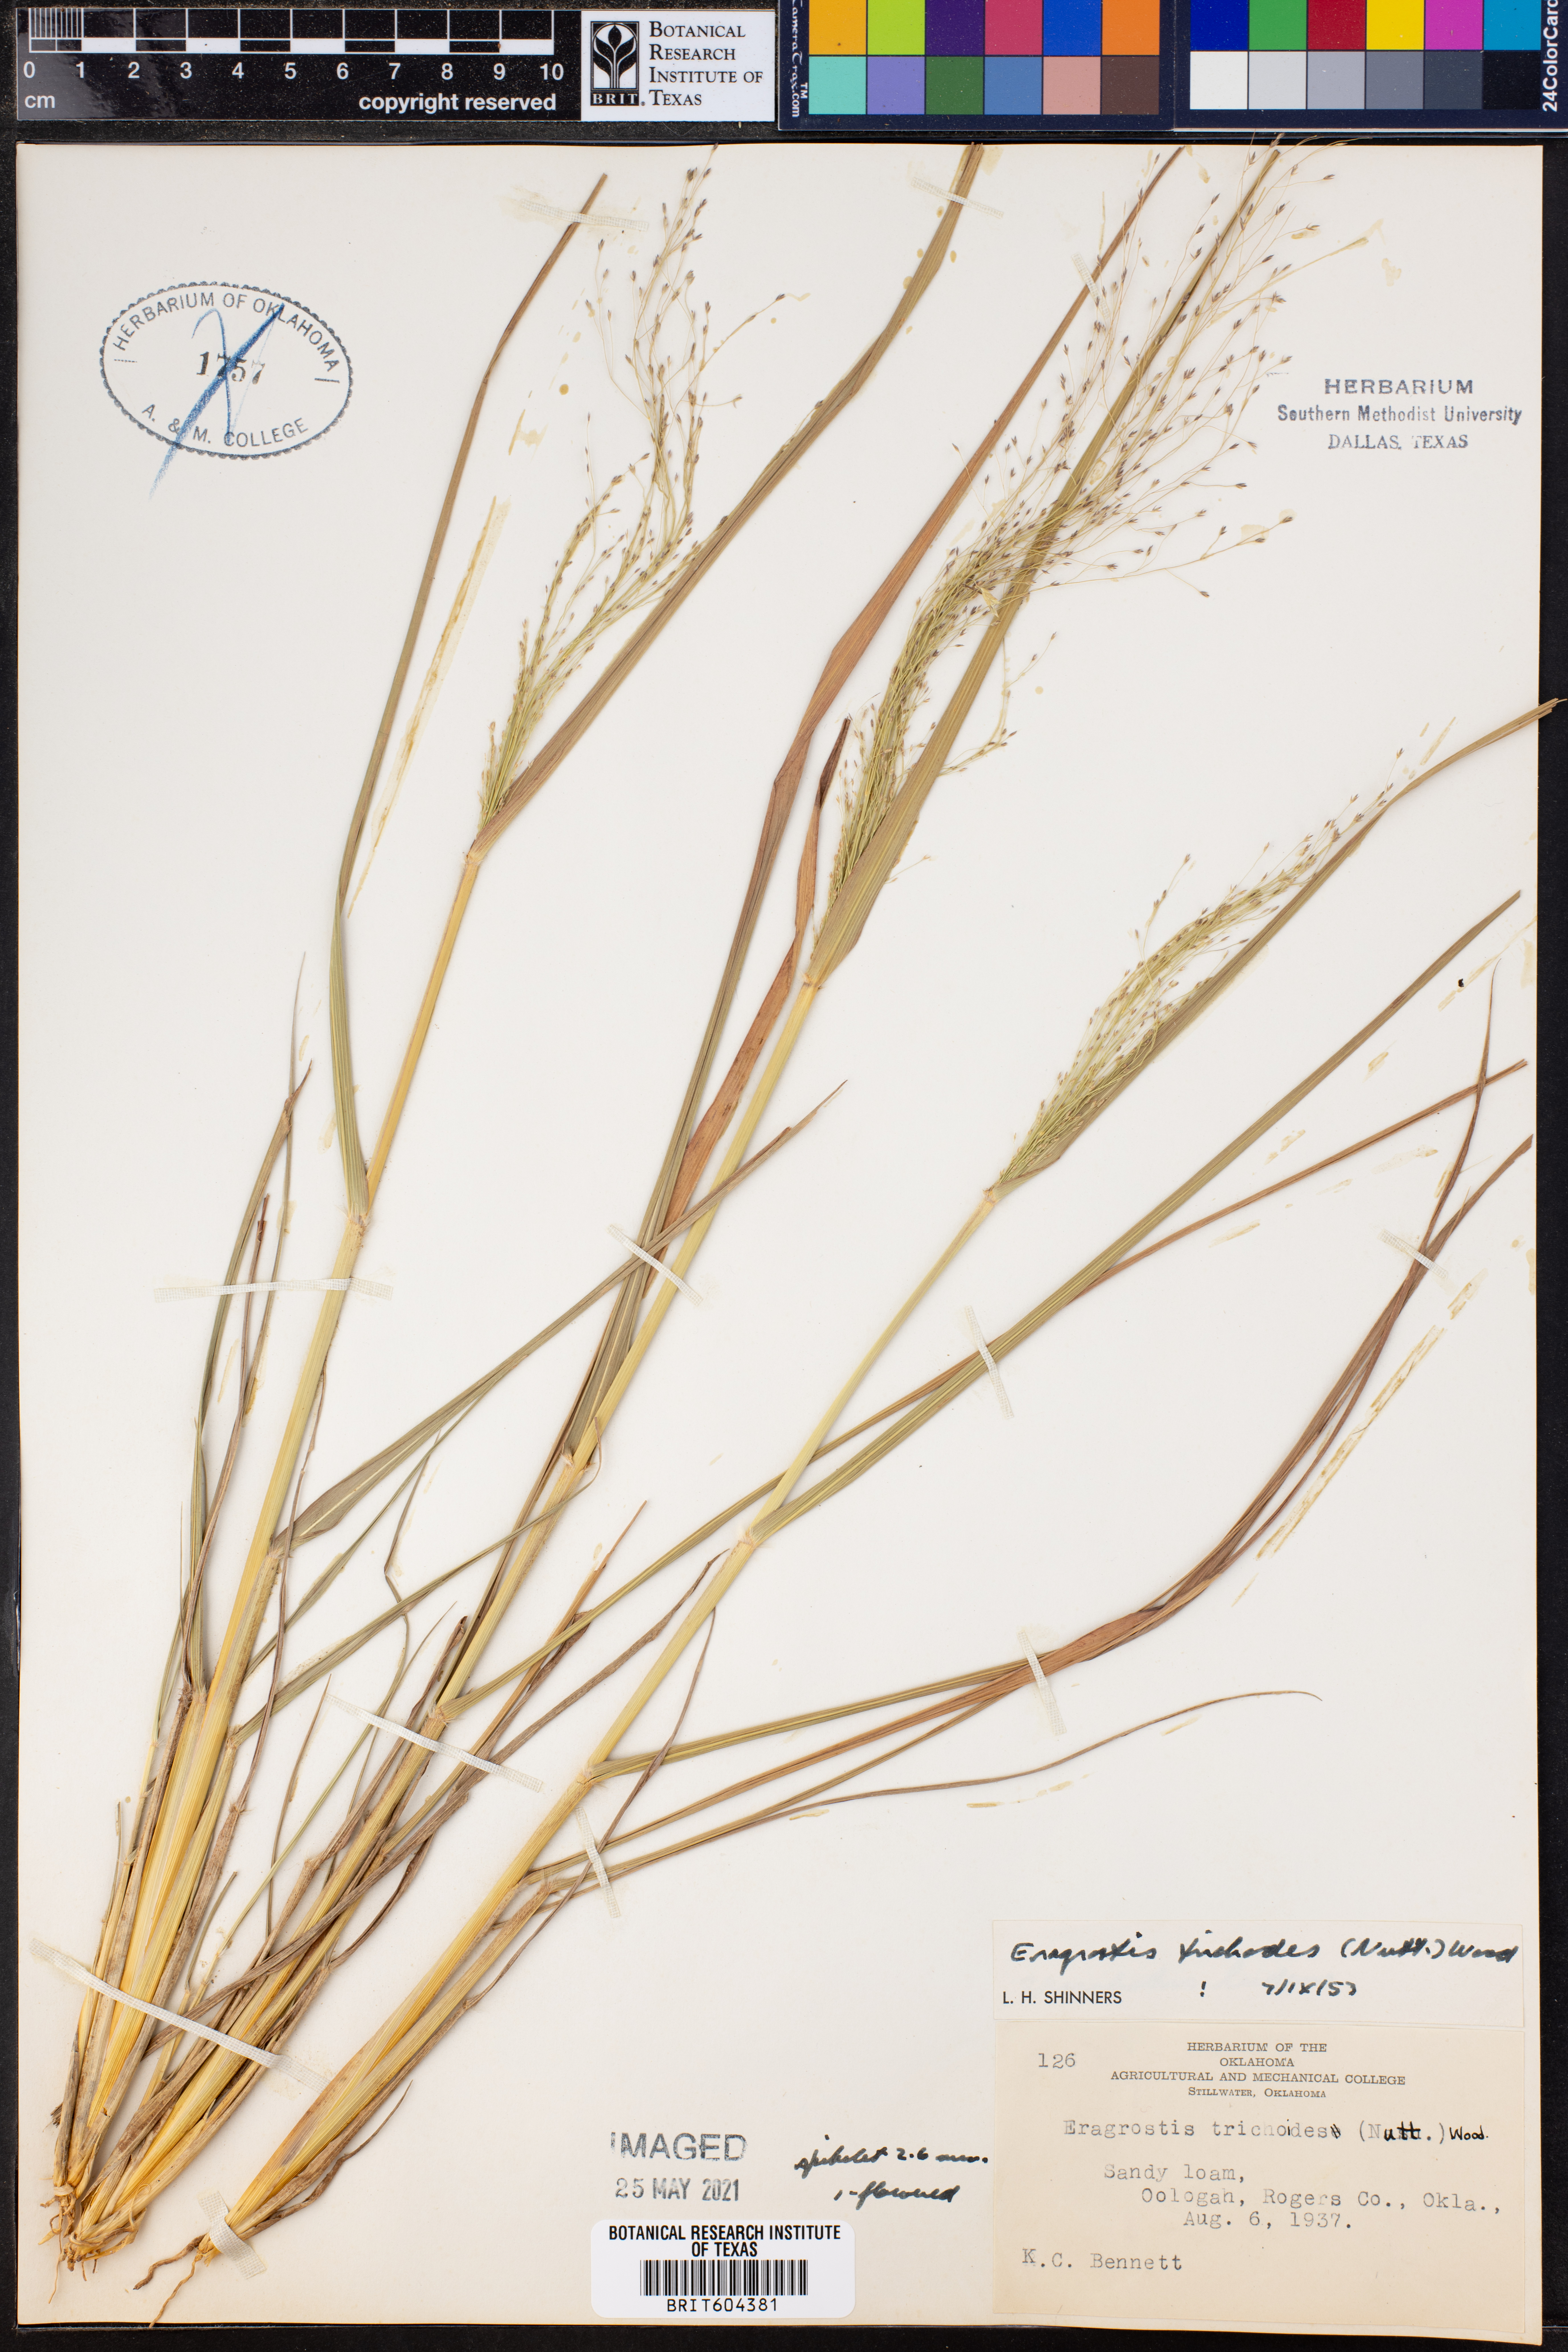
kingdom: Plantae
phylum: Tracheophyta
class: Liliopsida
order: Poales
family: Poaceae
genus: Eragrostis
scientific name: Eragrostis trichodes
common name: Sand love grass
